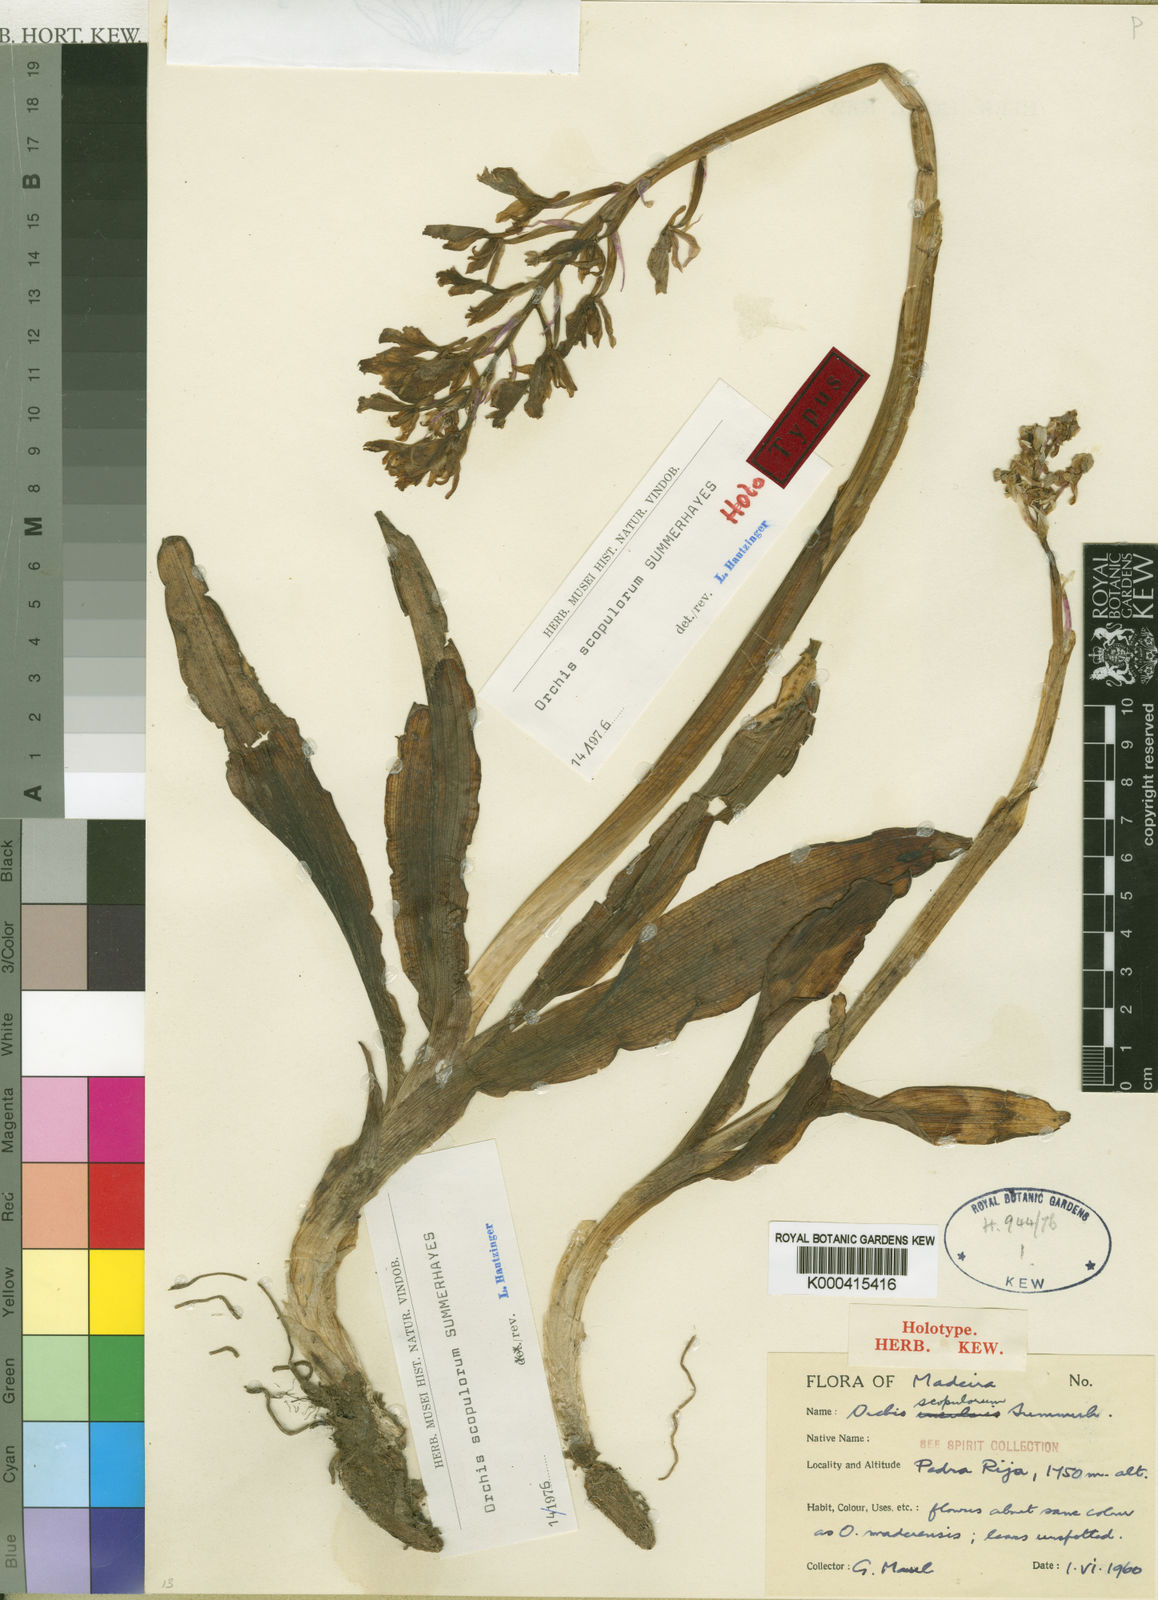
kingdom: Plantae
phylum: Tracheophyta
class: Liliopsida
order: Asparagales
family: Orchidaceae
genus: Orchis
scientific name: Orchis mascula
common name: Early-purple orchid
